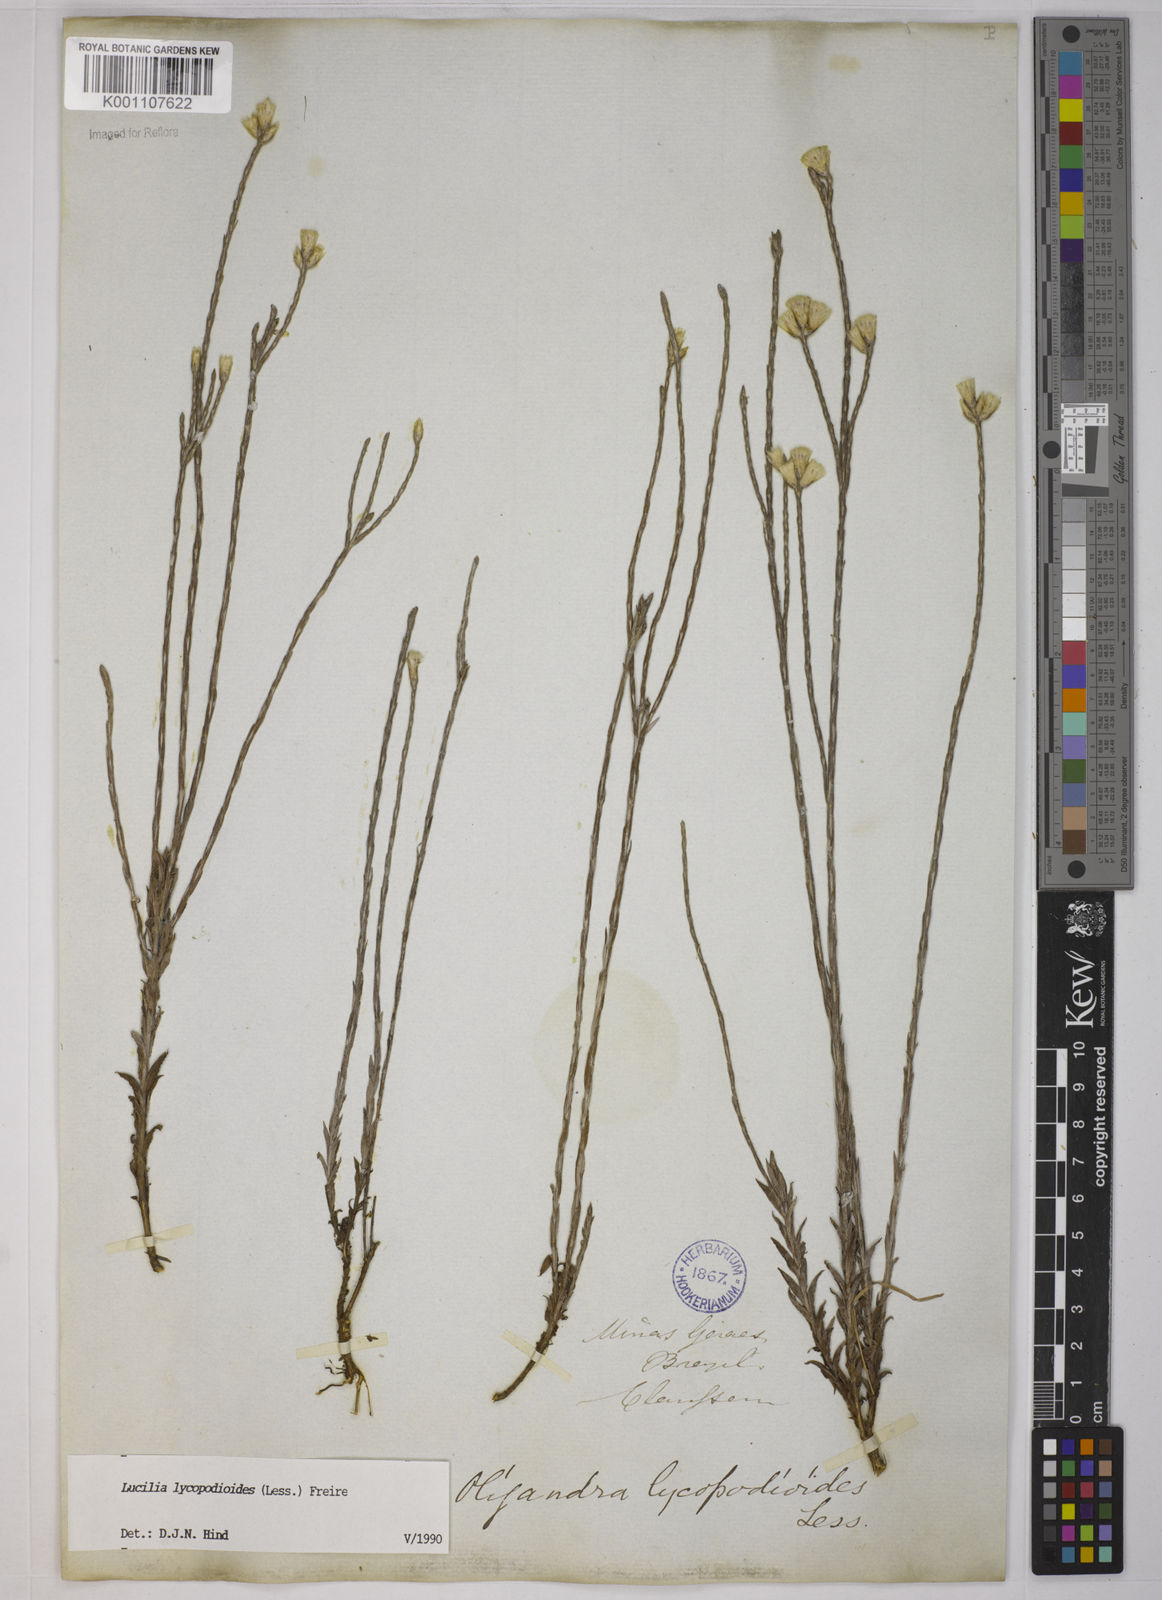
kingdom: Plantae
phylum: Tracheophyta
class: Magnoliopsida
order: Asterales
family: Asteraceae
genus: Lucilia
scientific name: Lucilia lycopodioides
